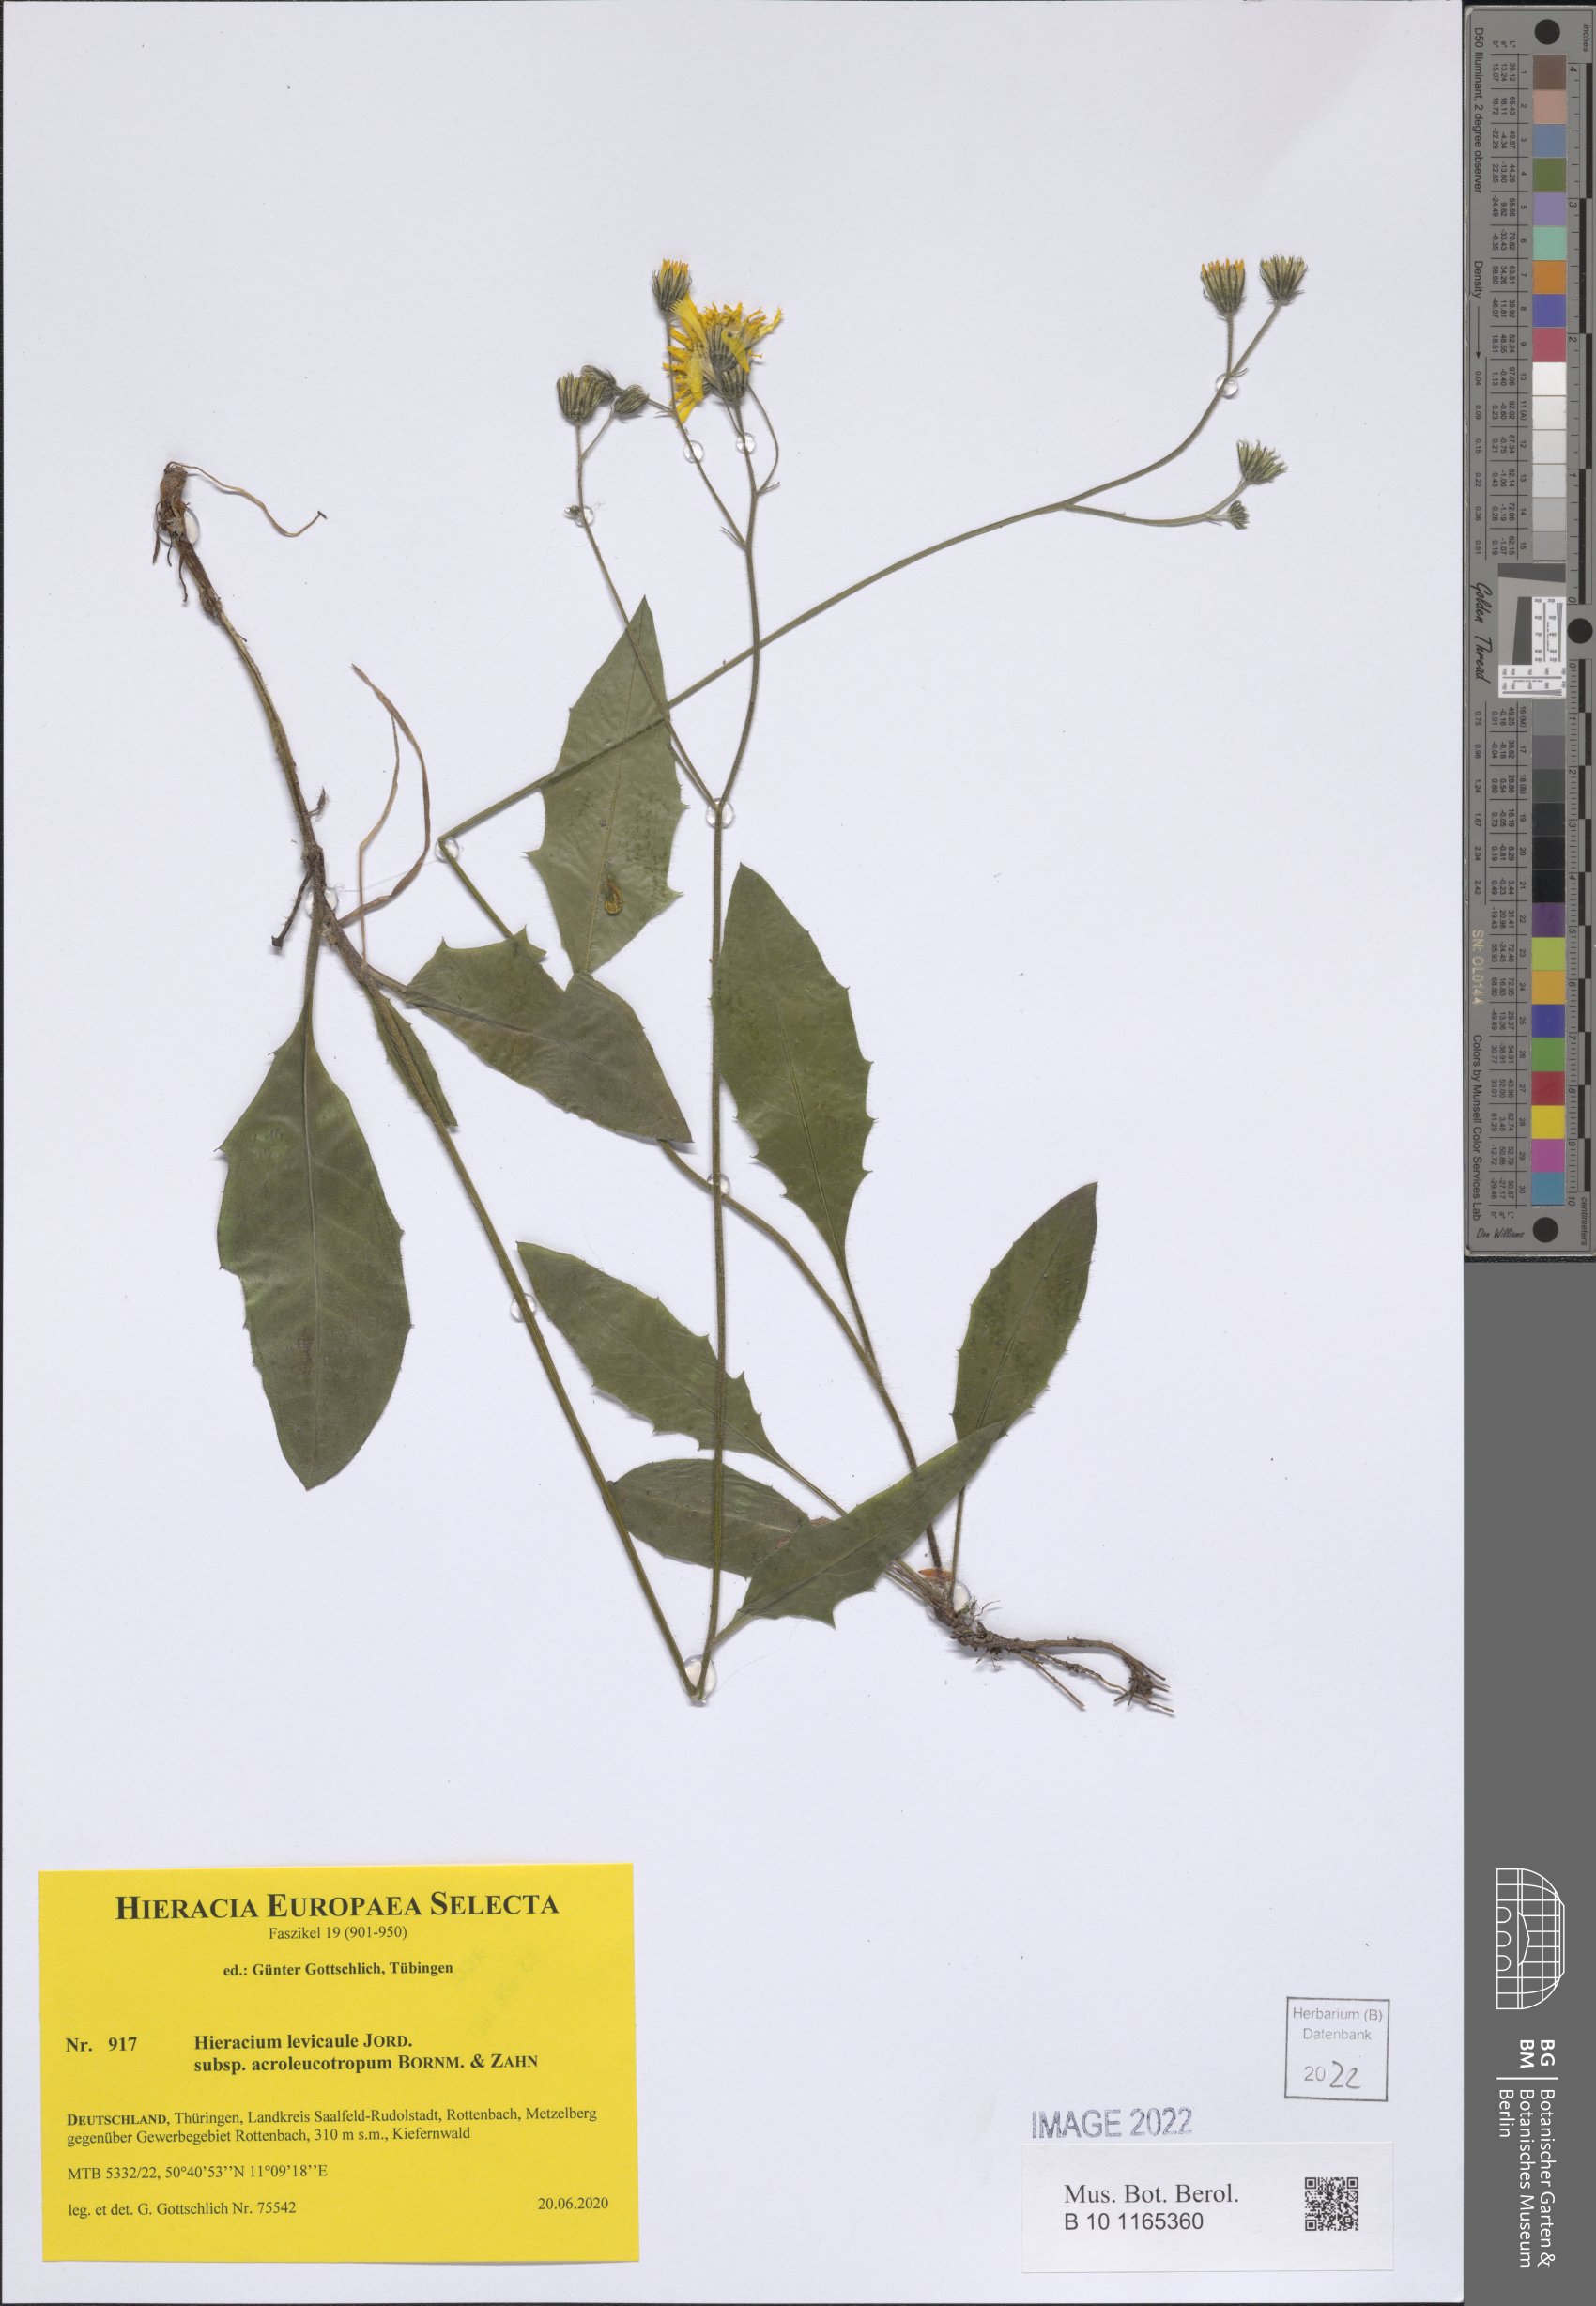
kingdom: Plantae
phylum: Tracheophyta
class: Magnoliopsida
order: Asterales
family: Asteraceae
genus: Hieracium
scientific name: Hieracium levicaule
